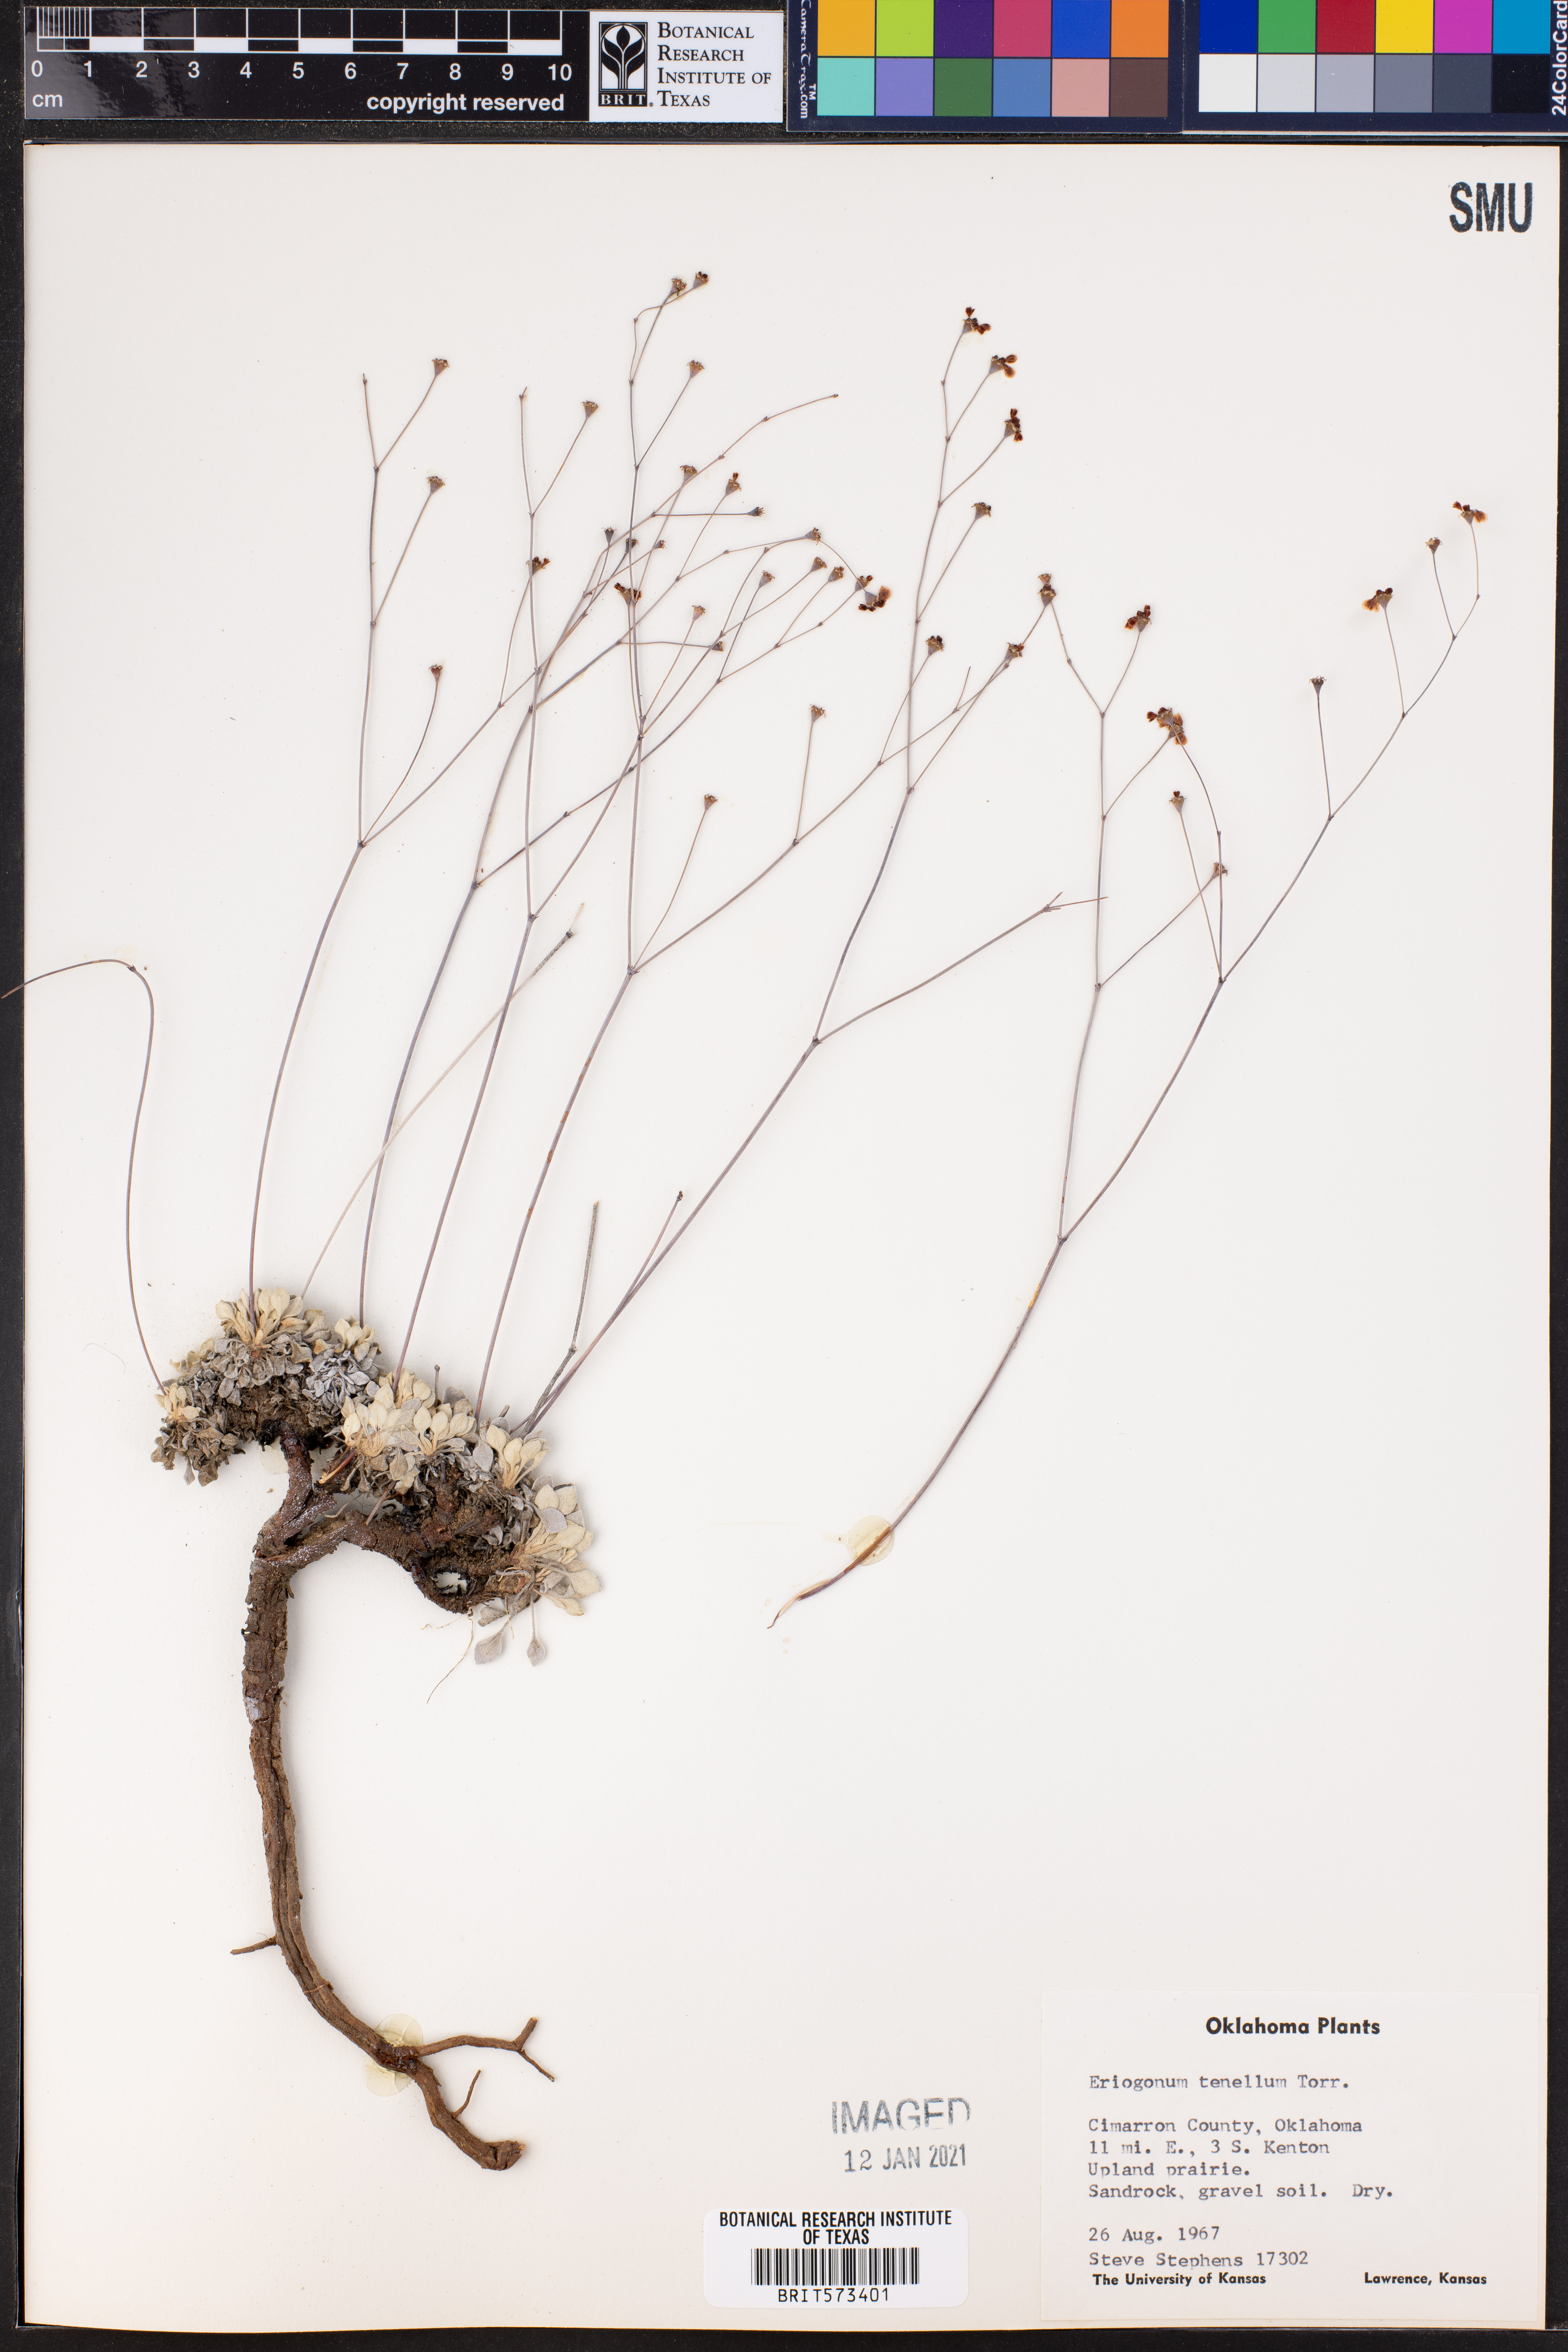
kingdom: Plantae
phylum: Tracheophyta
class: Magnoliopsida
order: Caryophyllales
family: Polygonaceae
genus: Eriogonum
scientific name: Eriogonum tenellum
